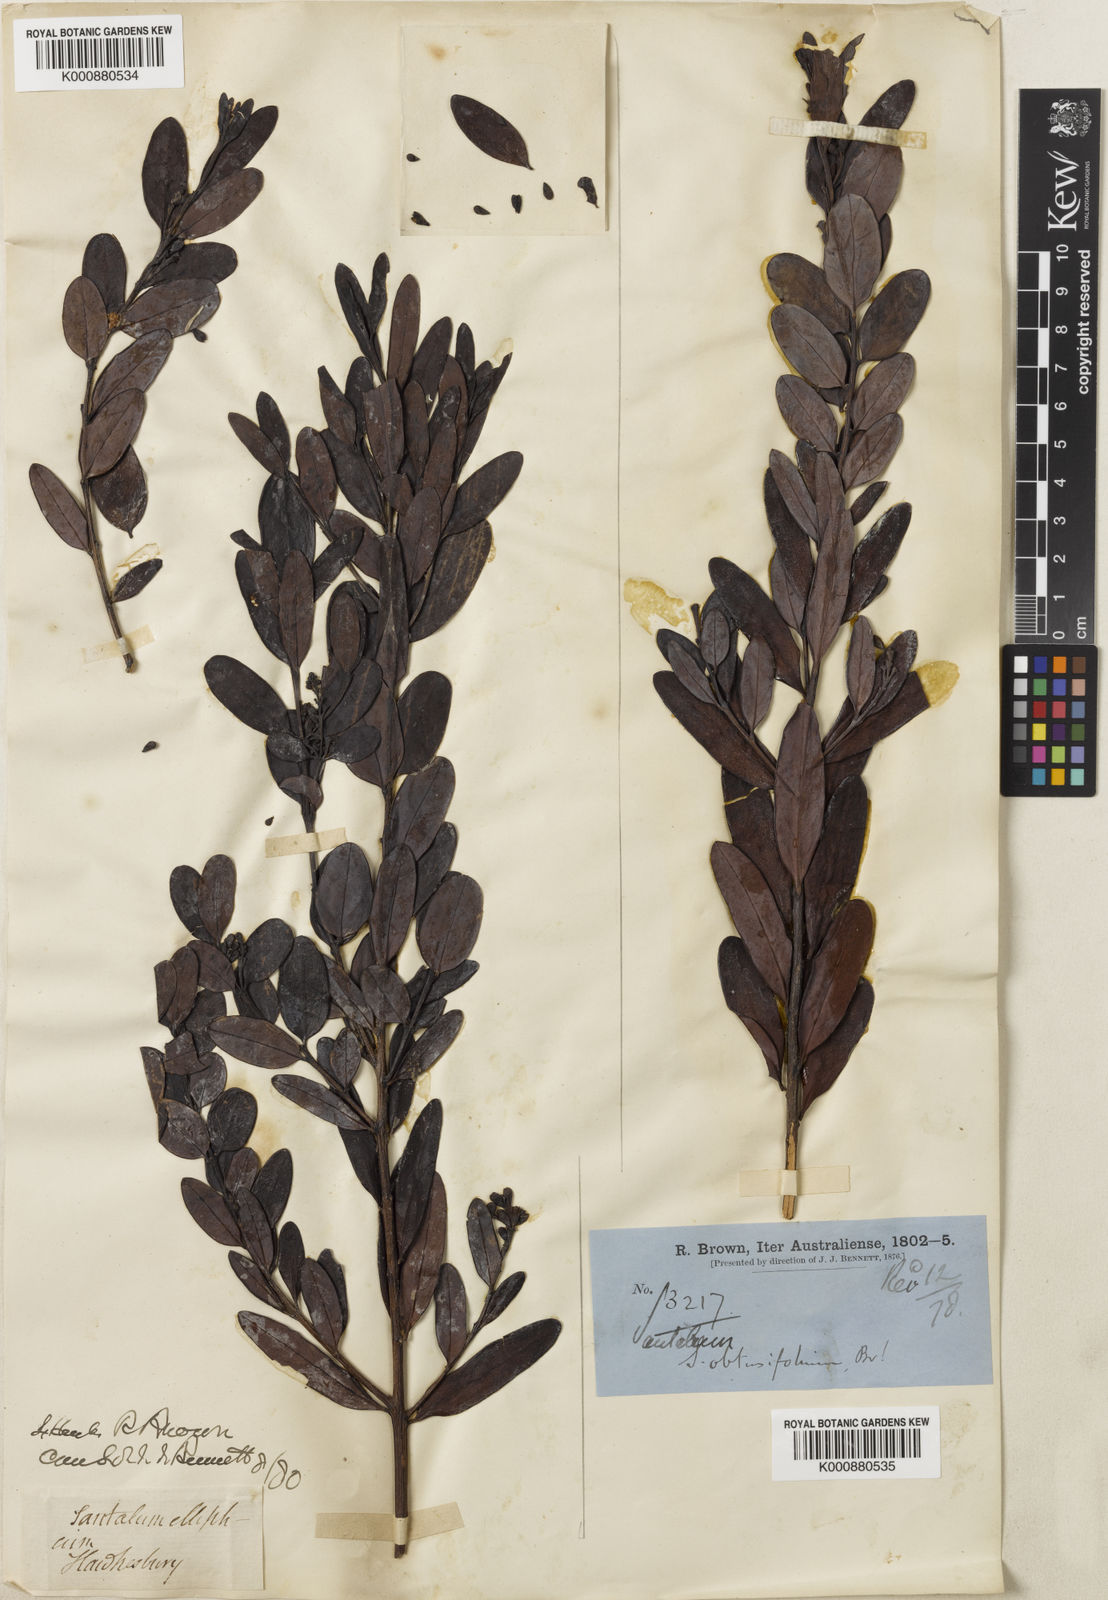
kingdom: Plantae
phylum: Tracheophyta
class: Magnoliopsida
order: Santalales
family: Santalaceae
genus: Santalum
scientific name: Santalum obtusifolium
